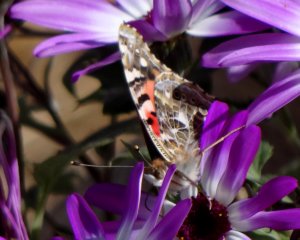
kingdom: Animalia
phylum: Arthropoda
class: Insecta
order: Lepidoptera
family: Nymphalidae
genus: Vanessa
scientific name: Vanessa cardui
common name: Painted Lady
